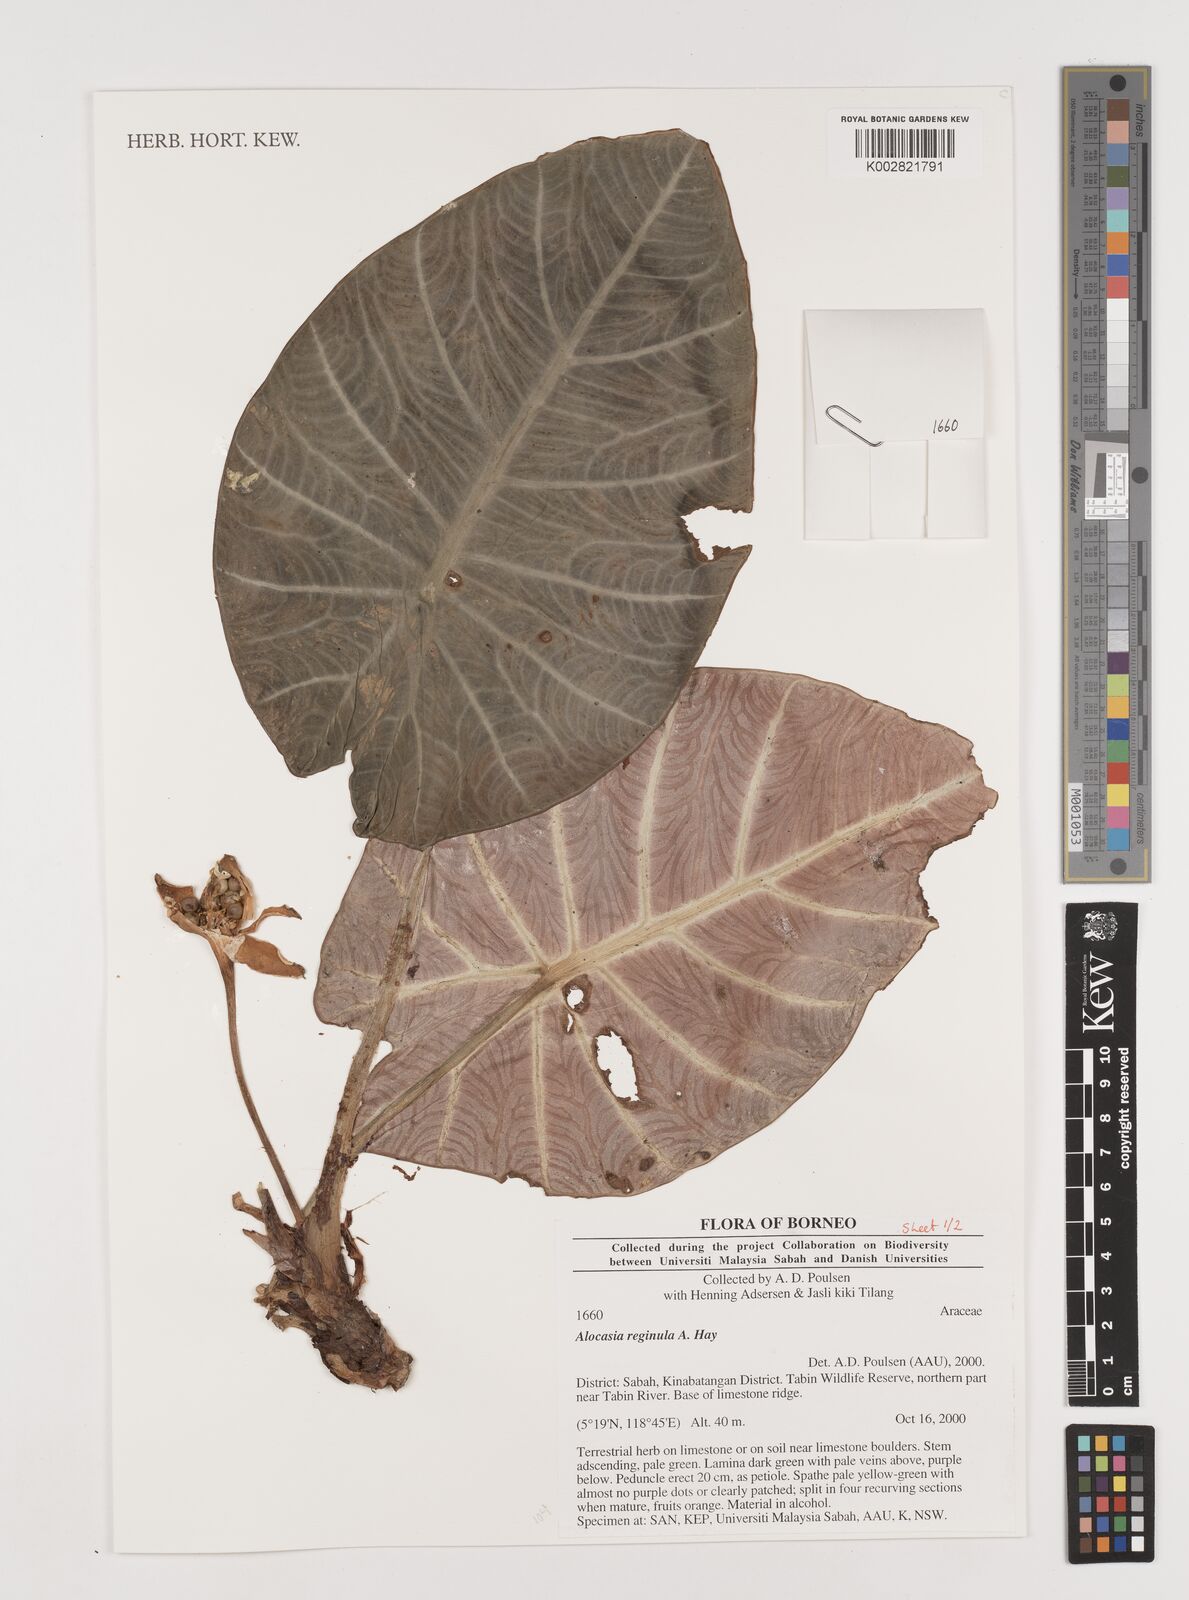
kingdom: Plantae
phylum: Tracheophyta
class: Liliopsida
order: Alismatales
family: Araceae
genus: Alocasia
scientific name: Alocasia reginae
